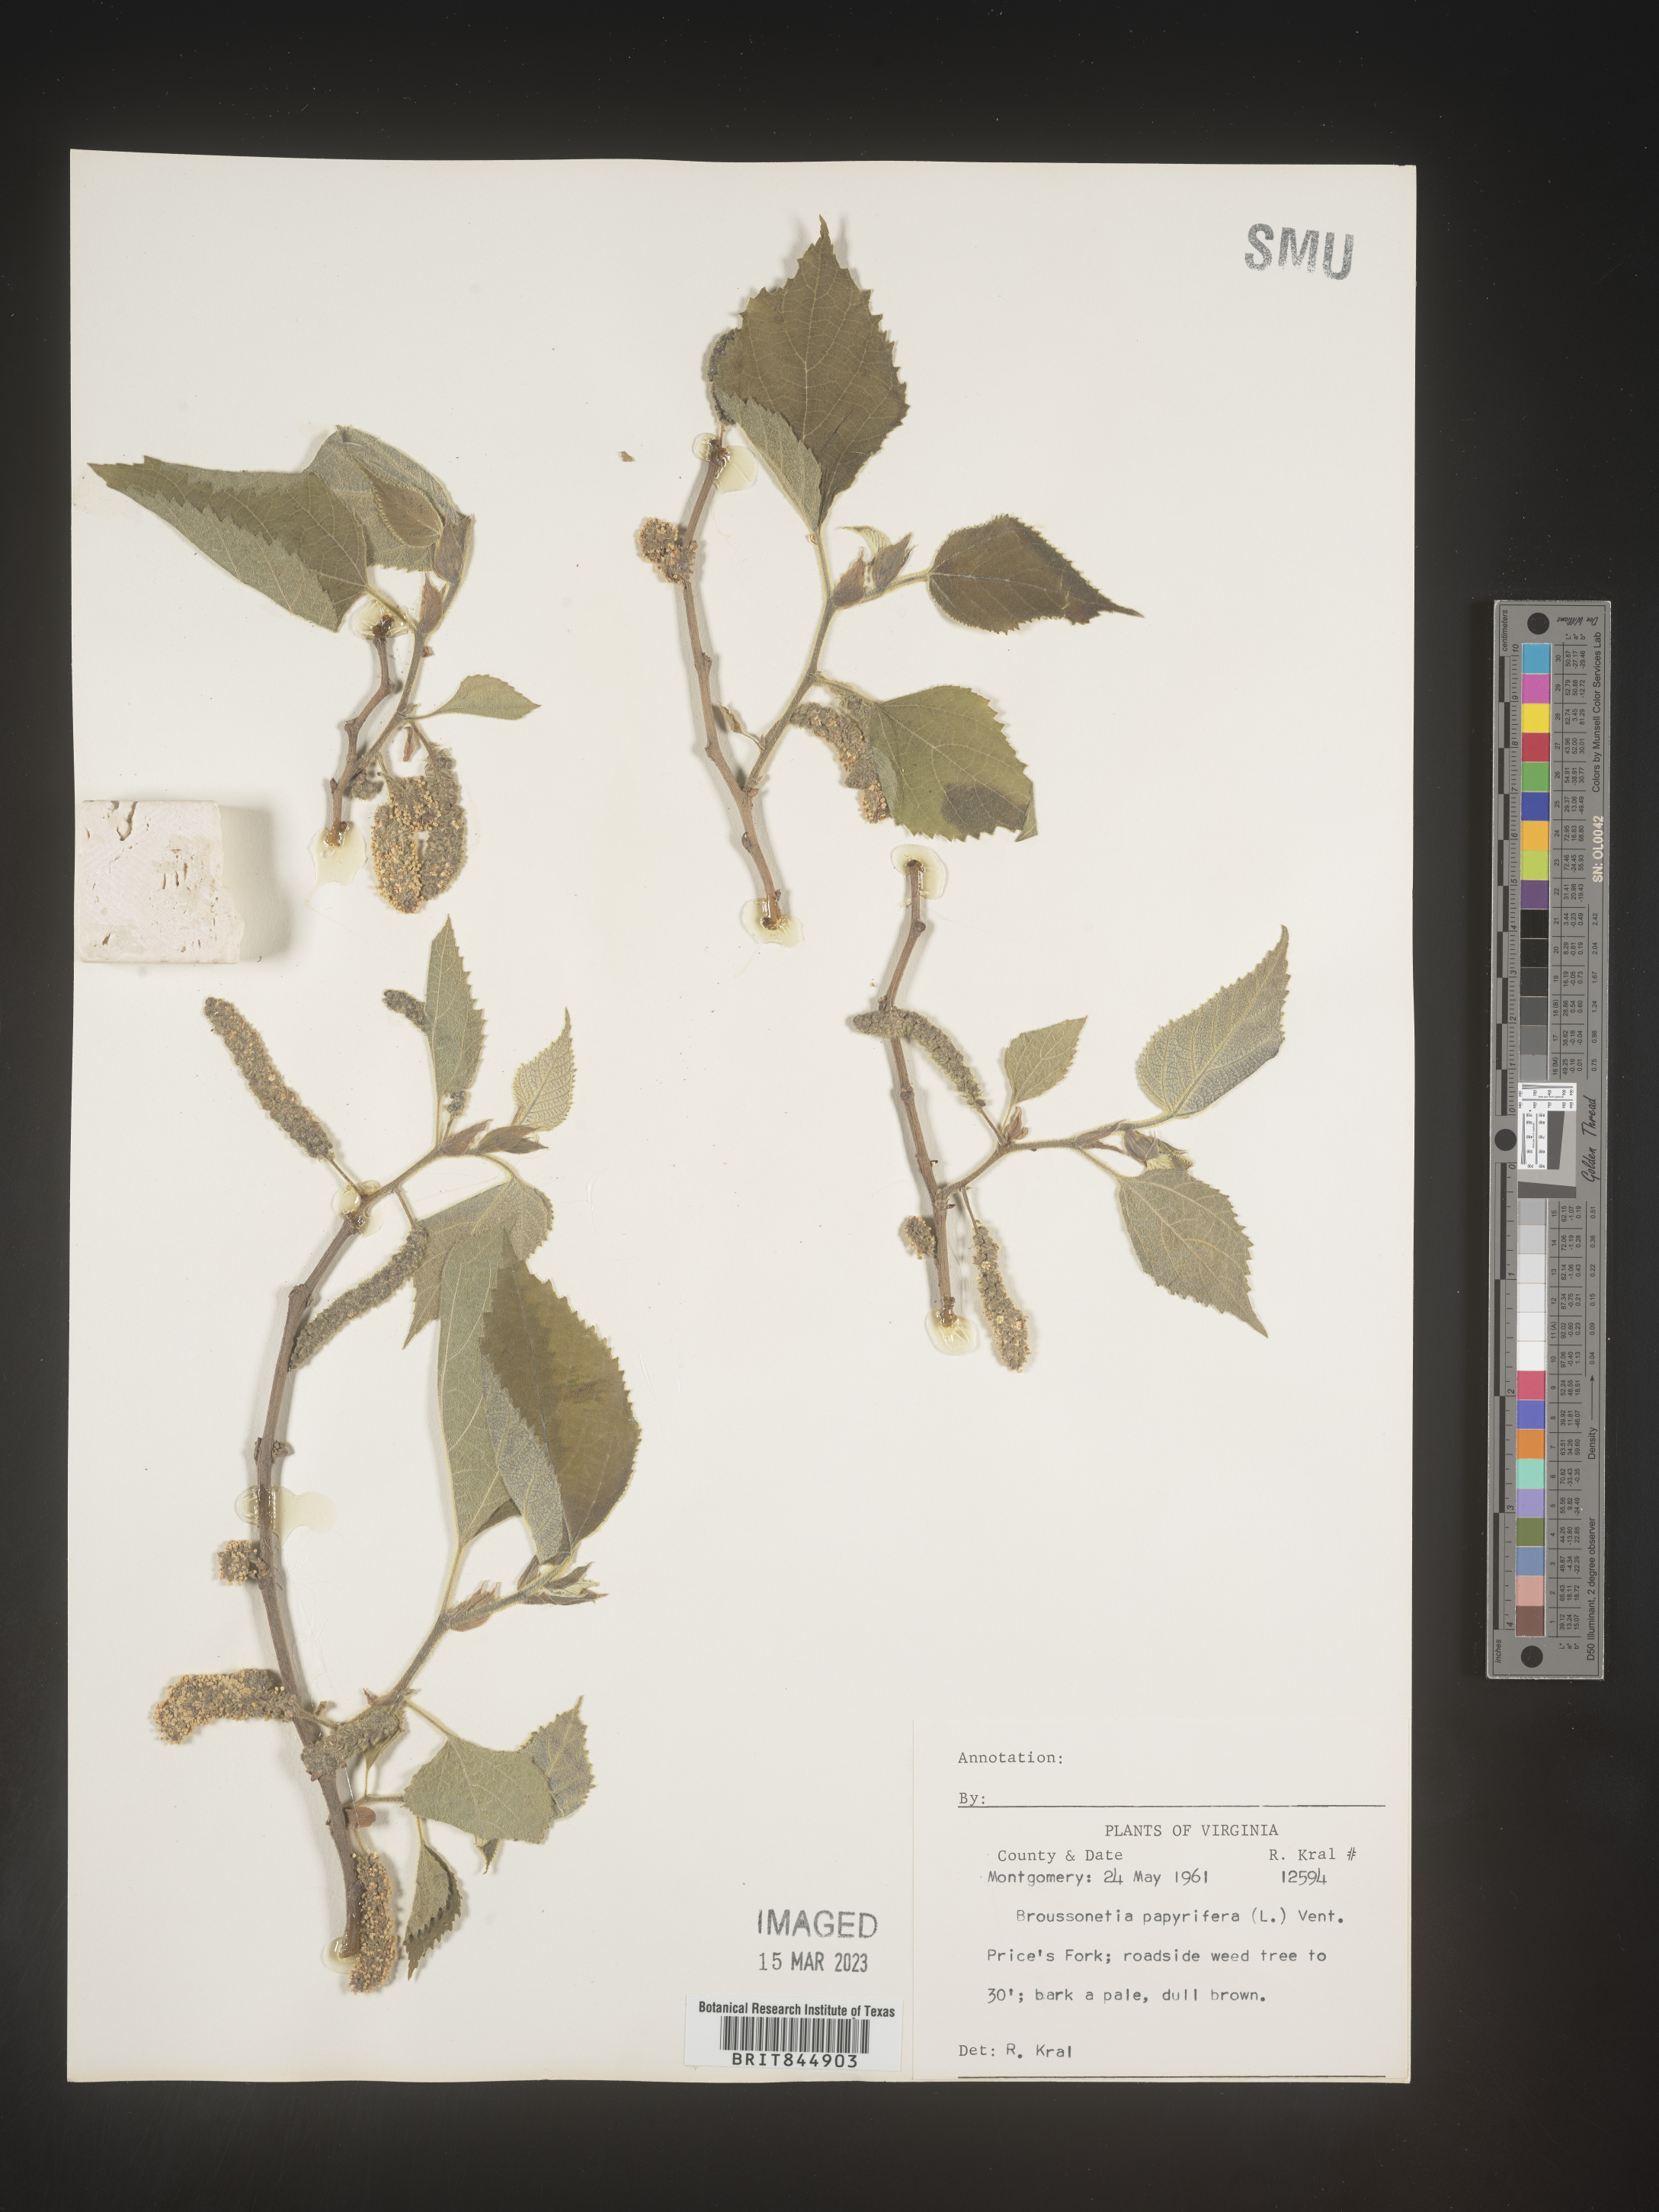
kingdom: Plantae
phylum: Tracheophyta
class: Magnoliopsida
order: Rosales
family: Moraceae
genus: Broussonetia
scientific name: Broussonetia
